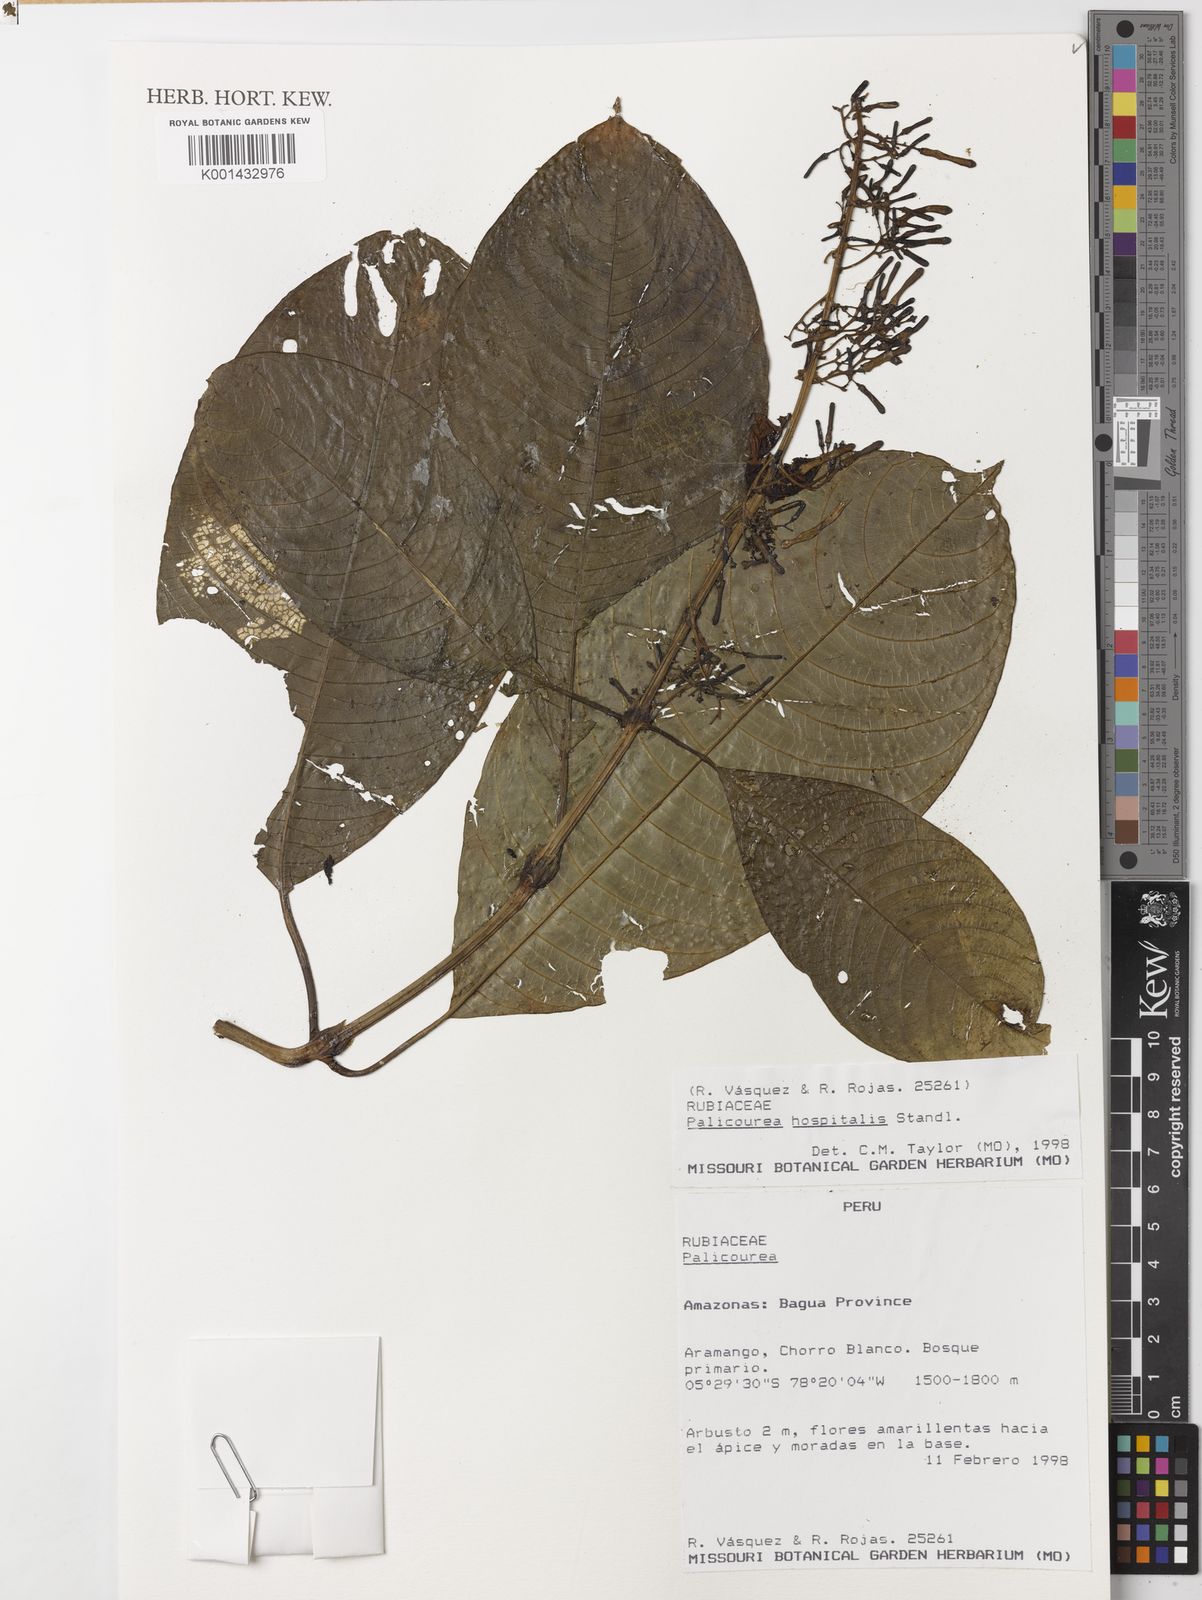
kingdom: Plantae
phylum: Tracheophyta
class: Magnoliopsida
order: Gentianales
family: Rubiaceae
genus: Palicourea
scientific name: Palicourea hospitalis
